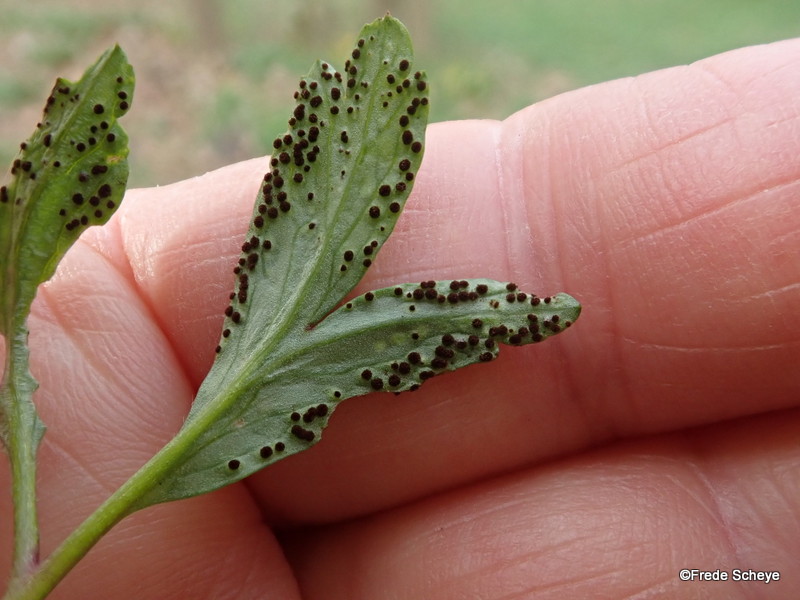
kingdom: Fungi
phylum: Basidiomycota
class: Pucciniomycetes
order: Pucciniales
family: Tranzscheliaceae
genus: Tranzschelia
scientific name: Tranzschelia anemones
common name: anemone-knæksporerust
